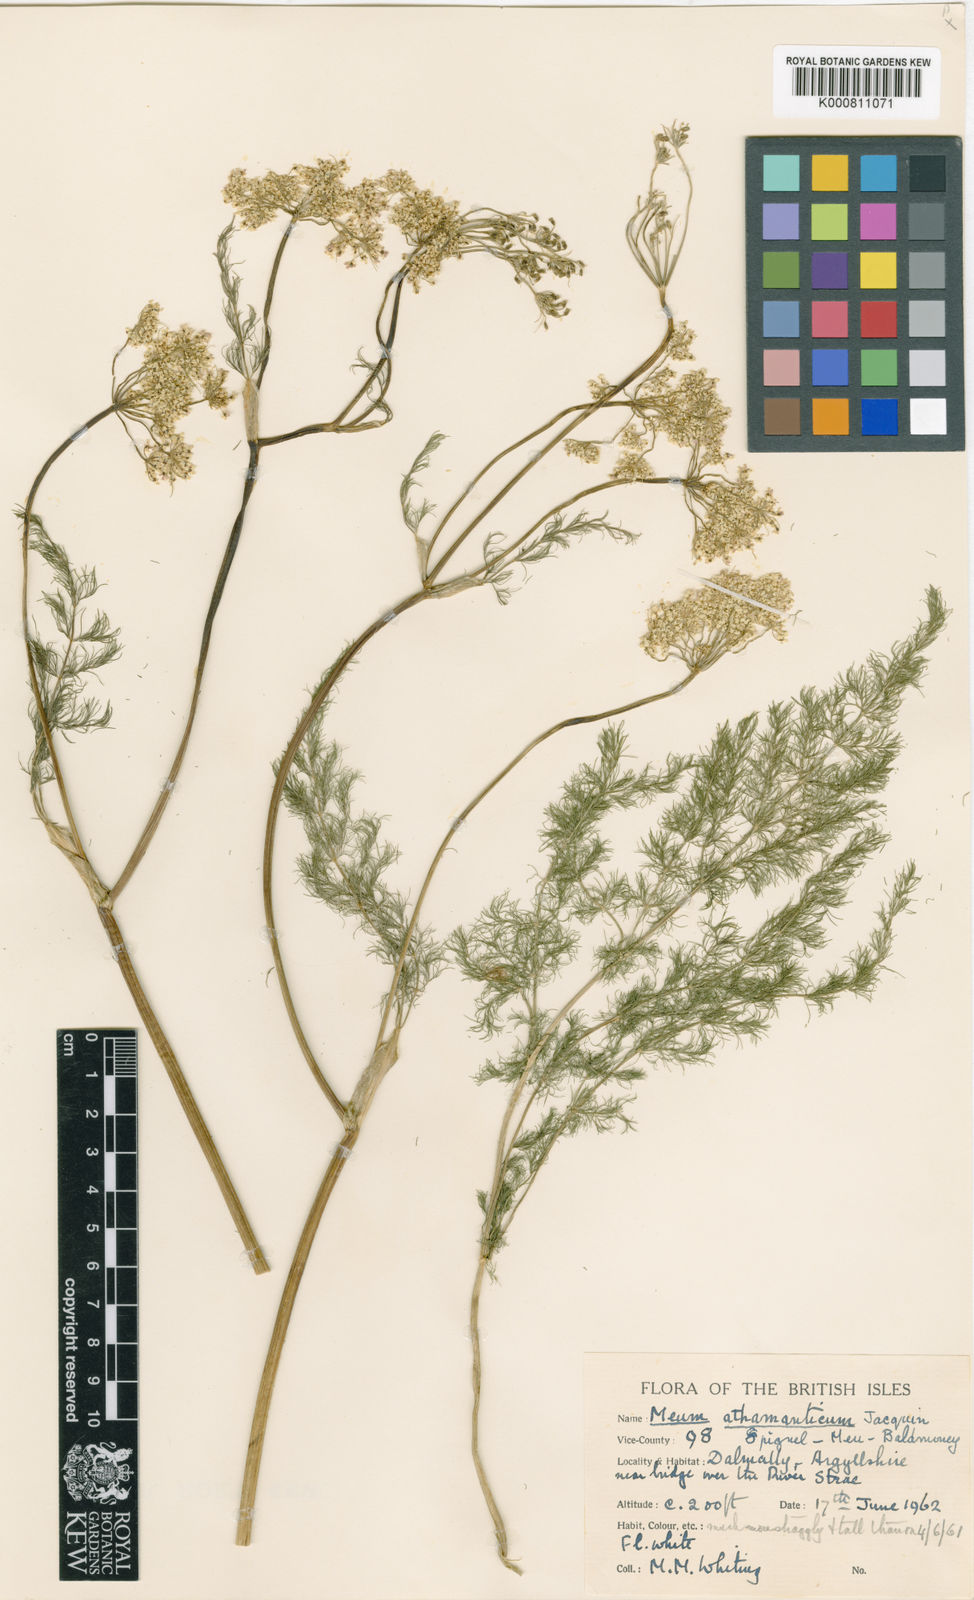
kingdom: Plantae
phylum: Tracheophyta
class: Magnoliopsida
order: Apiales
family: Apiaceae
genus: Meum
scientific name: Meum athamanticum
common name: Spignel
